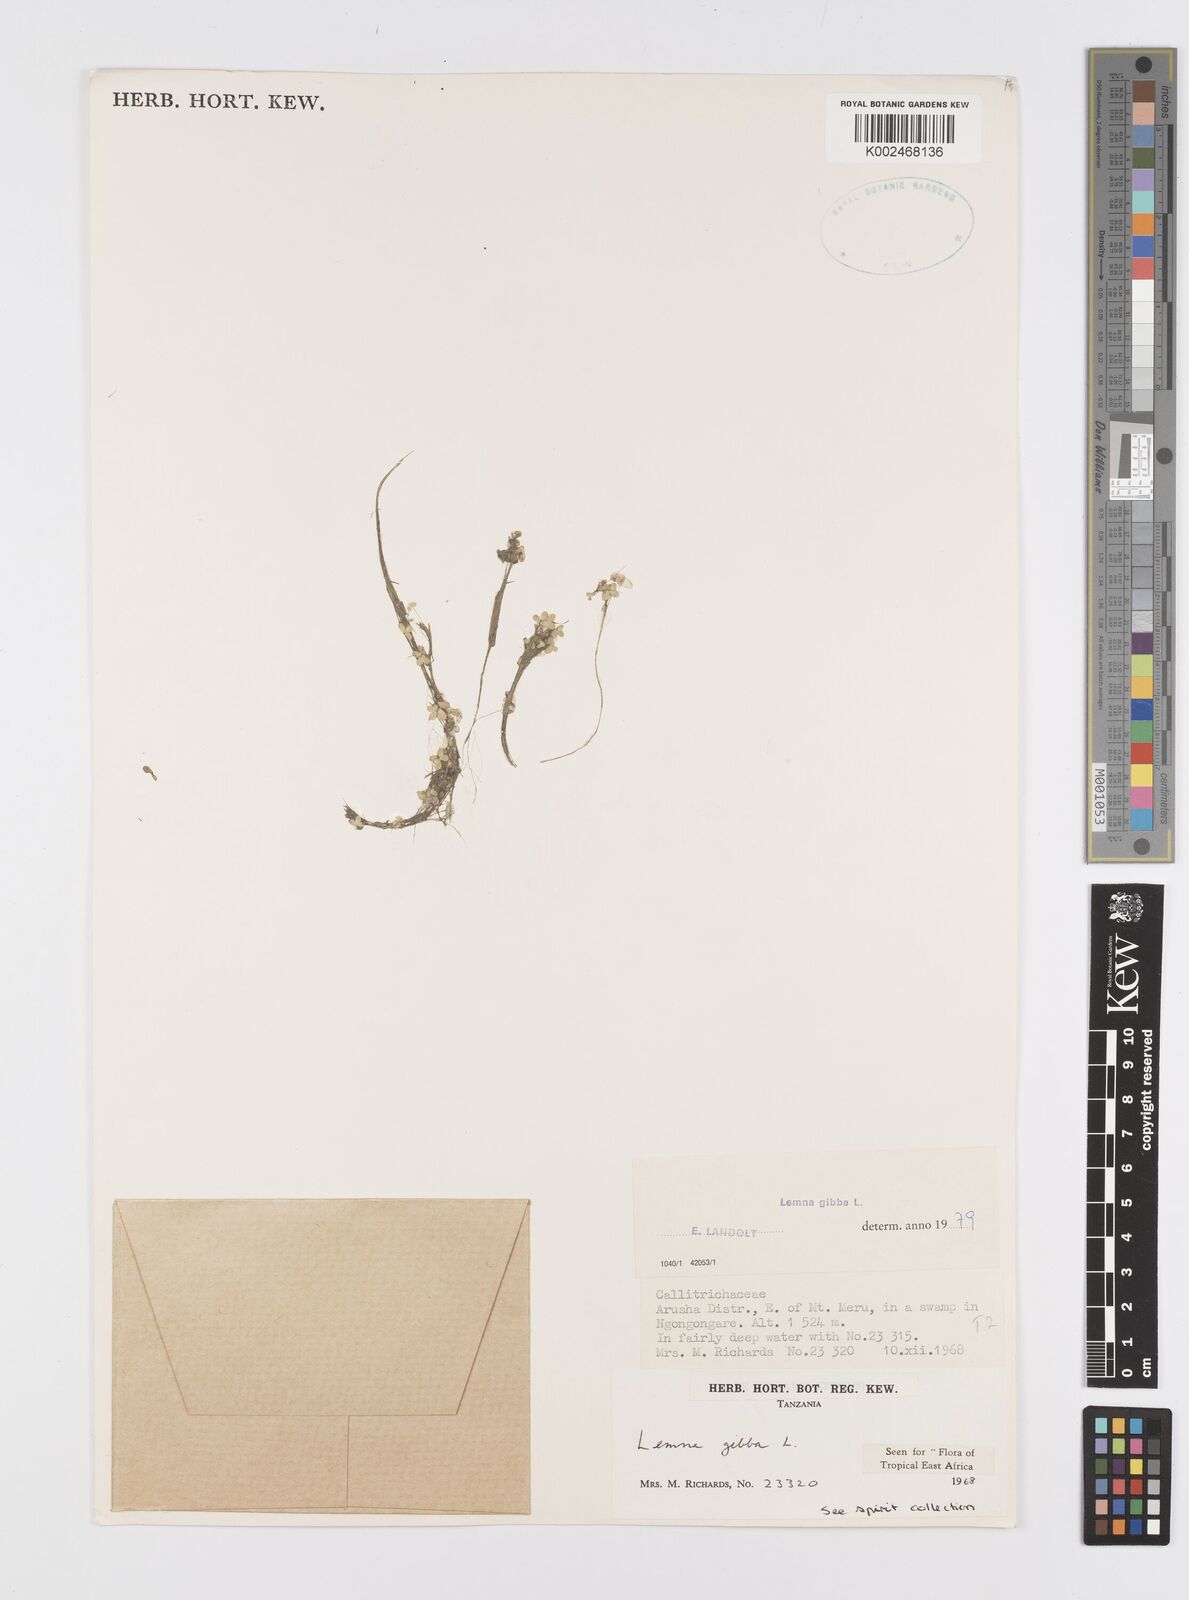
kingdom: Plantae
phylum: Tracheophyta
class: Liliopsida
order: Alismatales
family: Araceae
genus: Lemna
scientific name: Lemna gibba
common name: Fat duckweed
